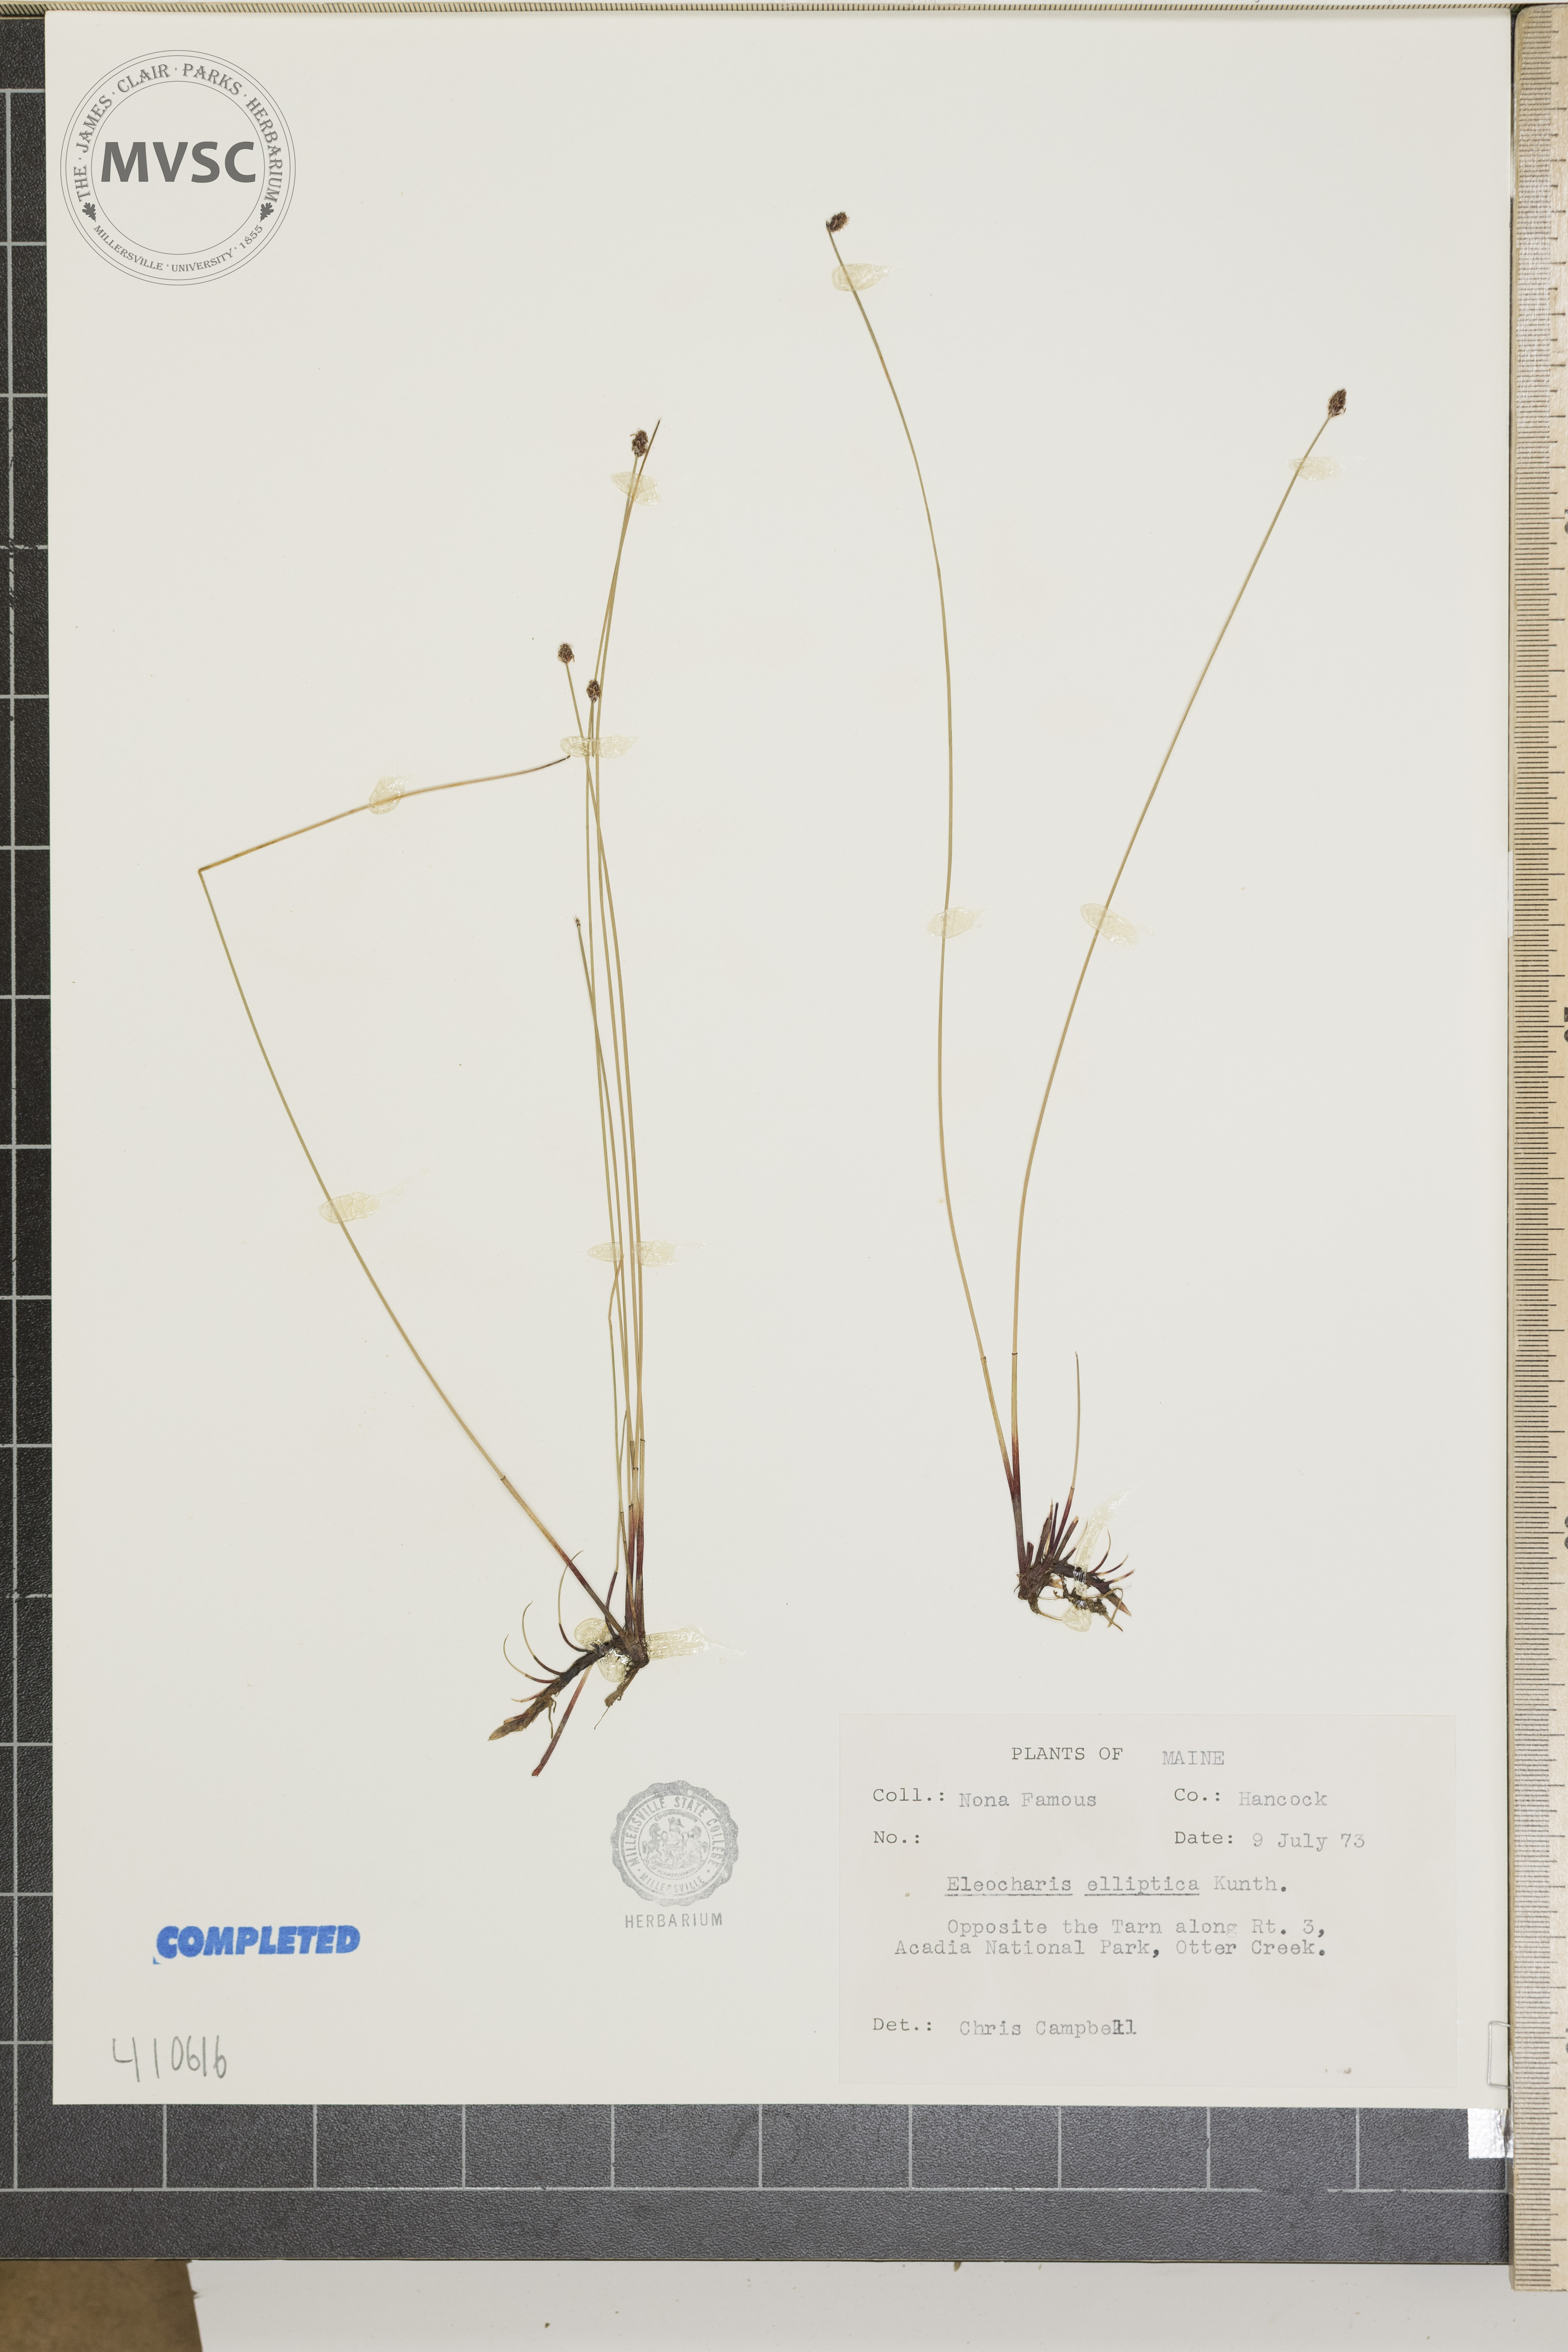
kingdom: Plantae
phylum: Tracheophyta
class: Liliopsida
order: Poales
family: Cyperaceae
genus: Eleocharis
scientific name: Eleocharis elliptica
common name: elliptic spikerush
